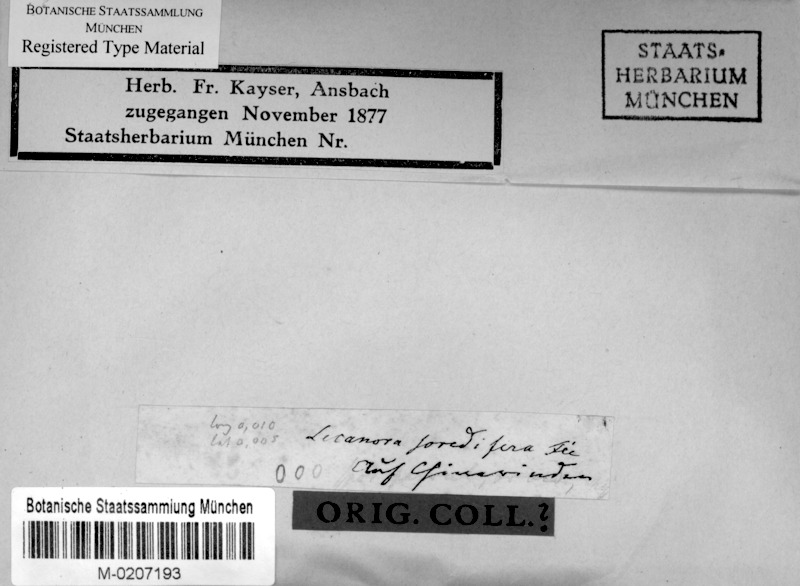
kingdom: Fungi
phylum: Ascomycota
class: Lecanoromycetes
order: Lecanorales
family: Lecanoraceae
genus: Lecanora
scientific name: Lecanora soredifera
